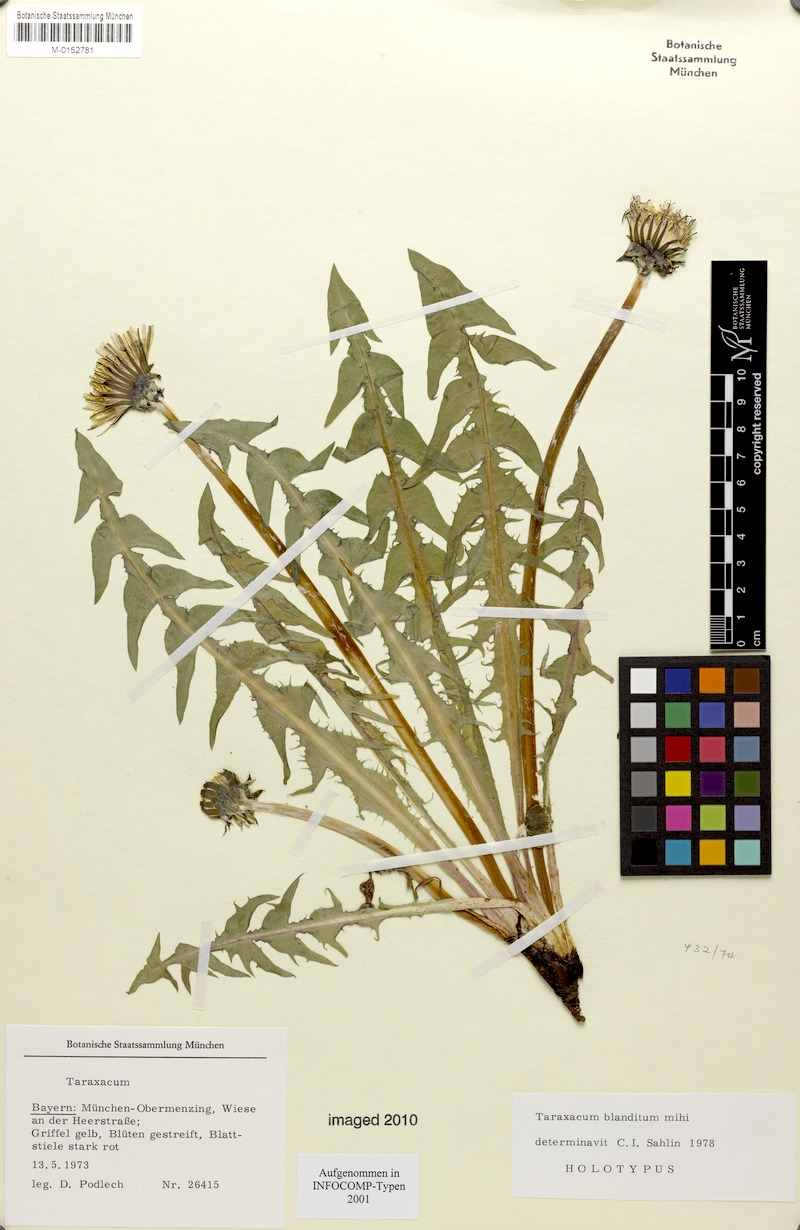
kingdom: Plantae
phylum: Tracheophyta
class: Magnoliopsida
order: Asterales
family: Asteraceae
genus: Taraxacum
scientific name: Taraxacum blanditum
